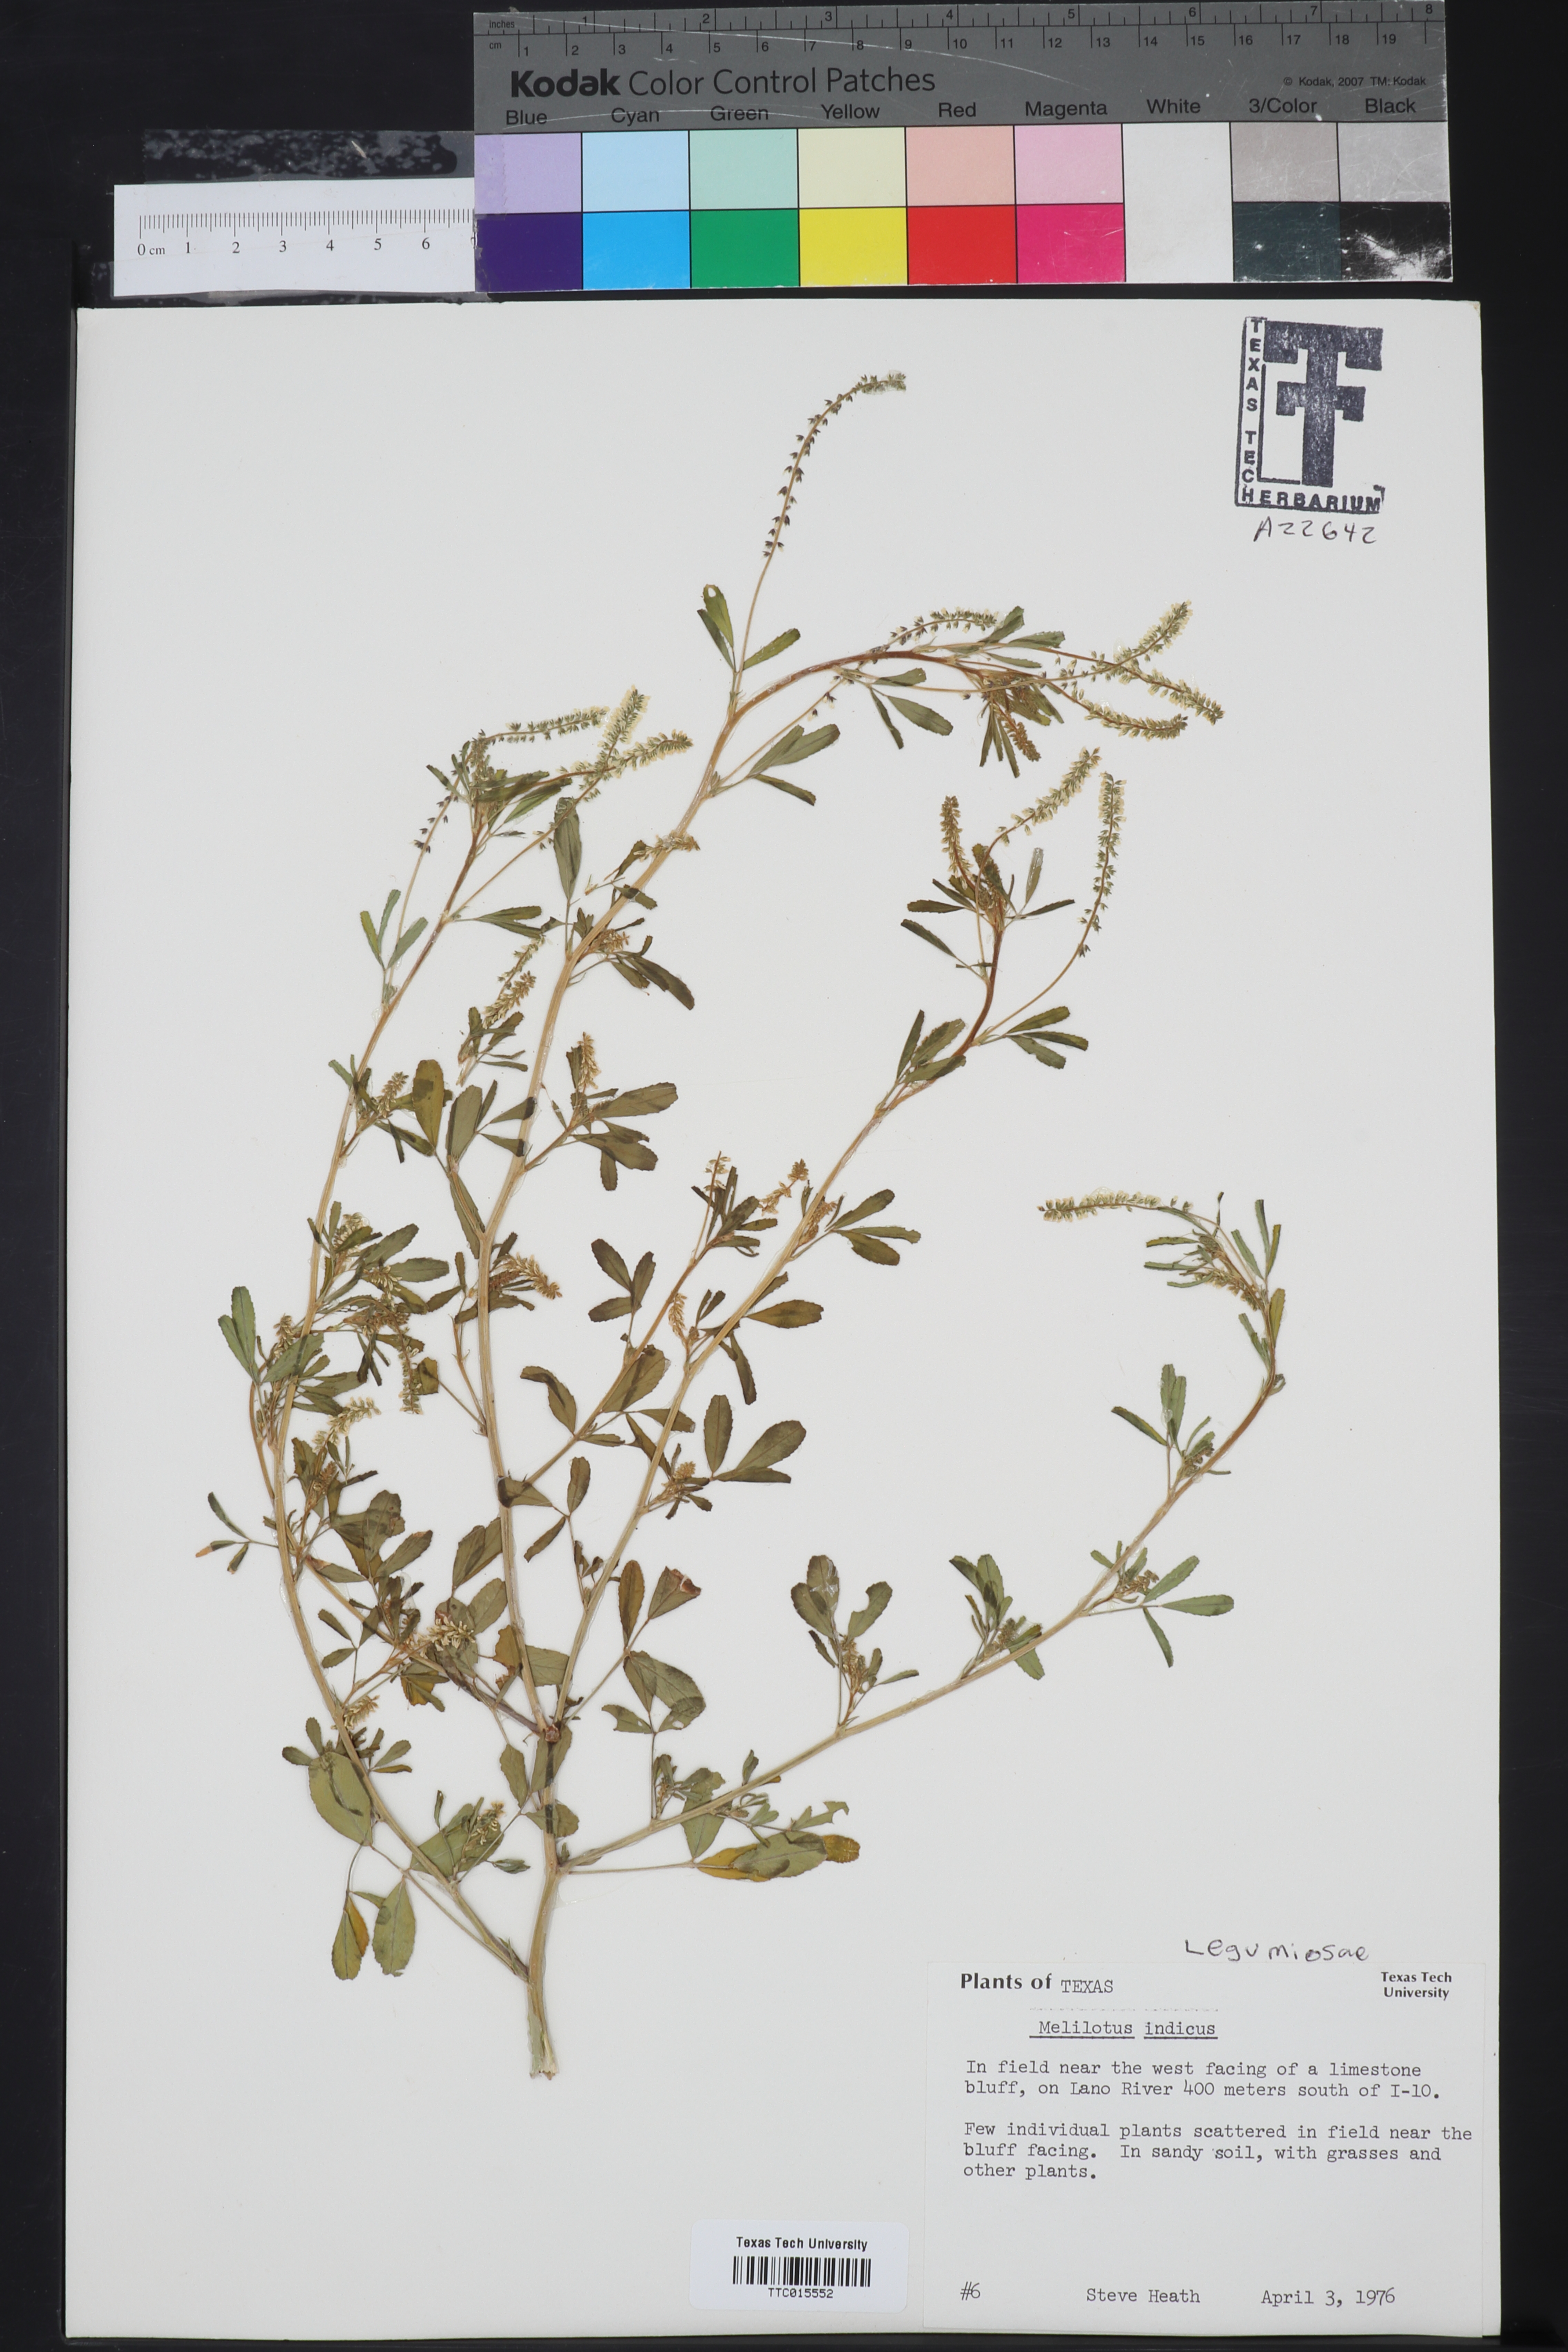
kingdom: Plantae
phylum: Tracheophyta
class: Magnoliopsida
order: Fabales
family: Fabaceae
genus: Melilotus
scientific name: Melilotus indicus
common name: Small melilot
